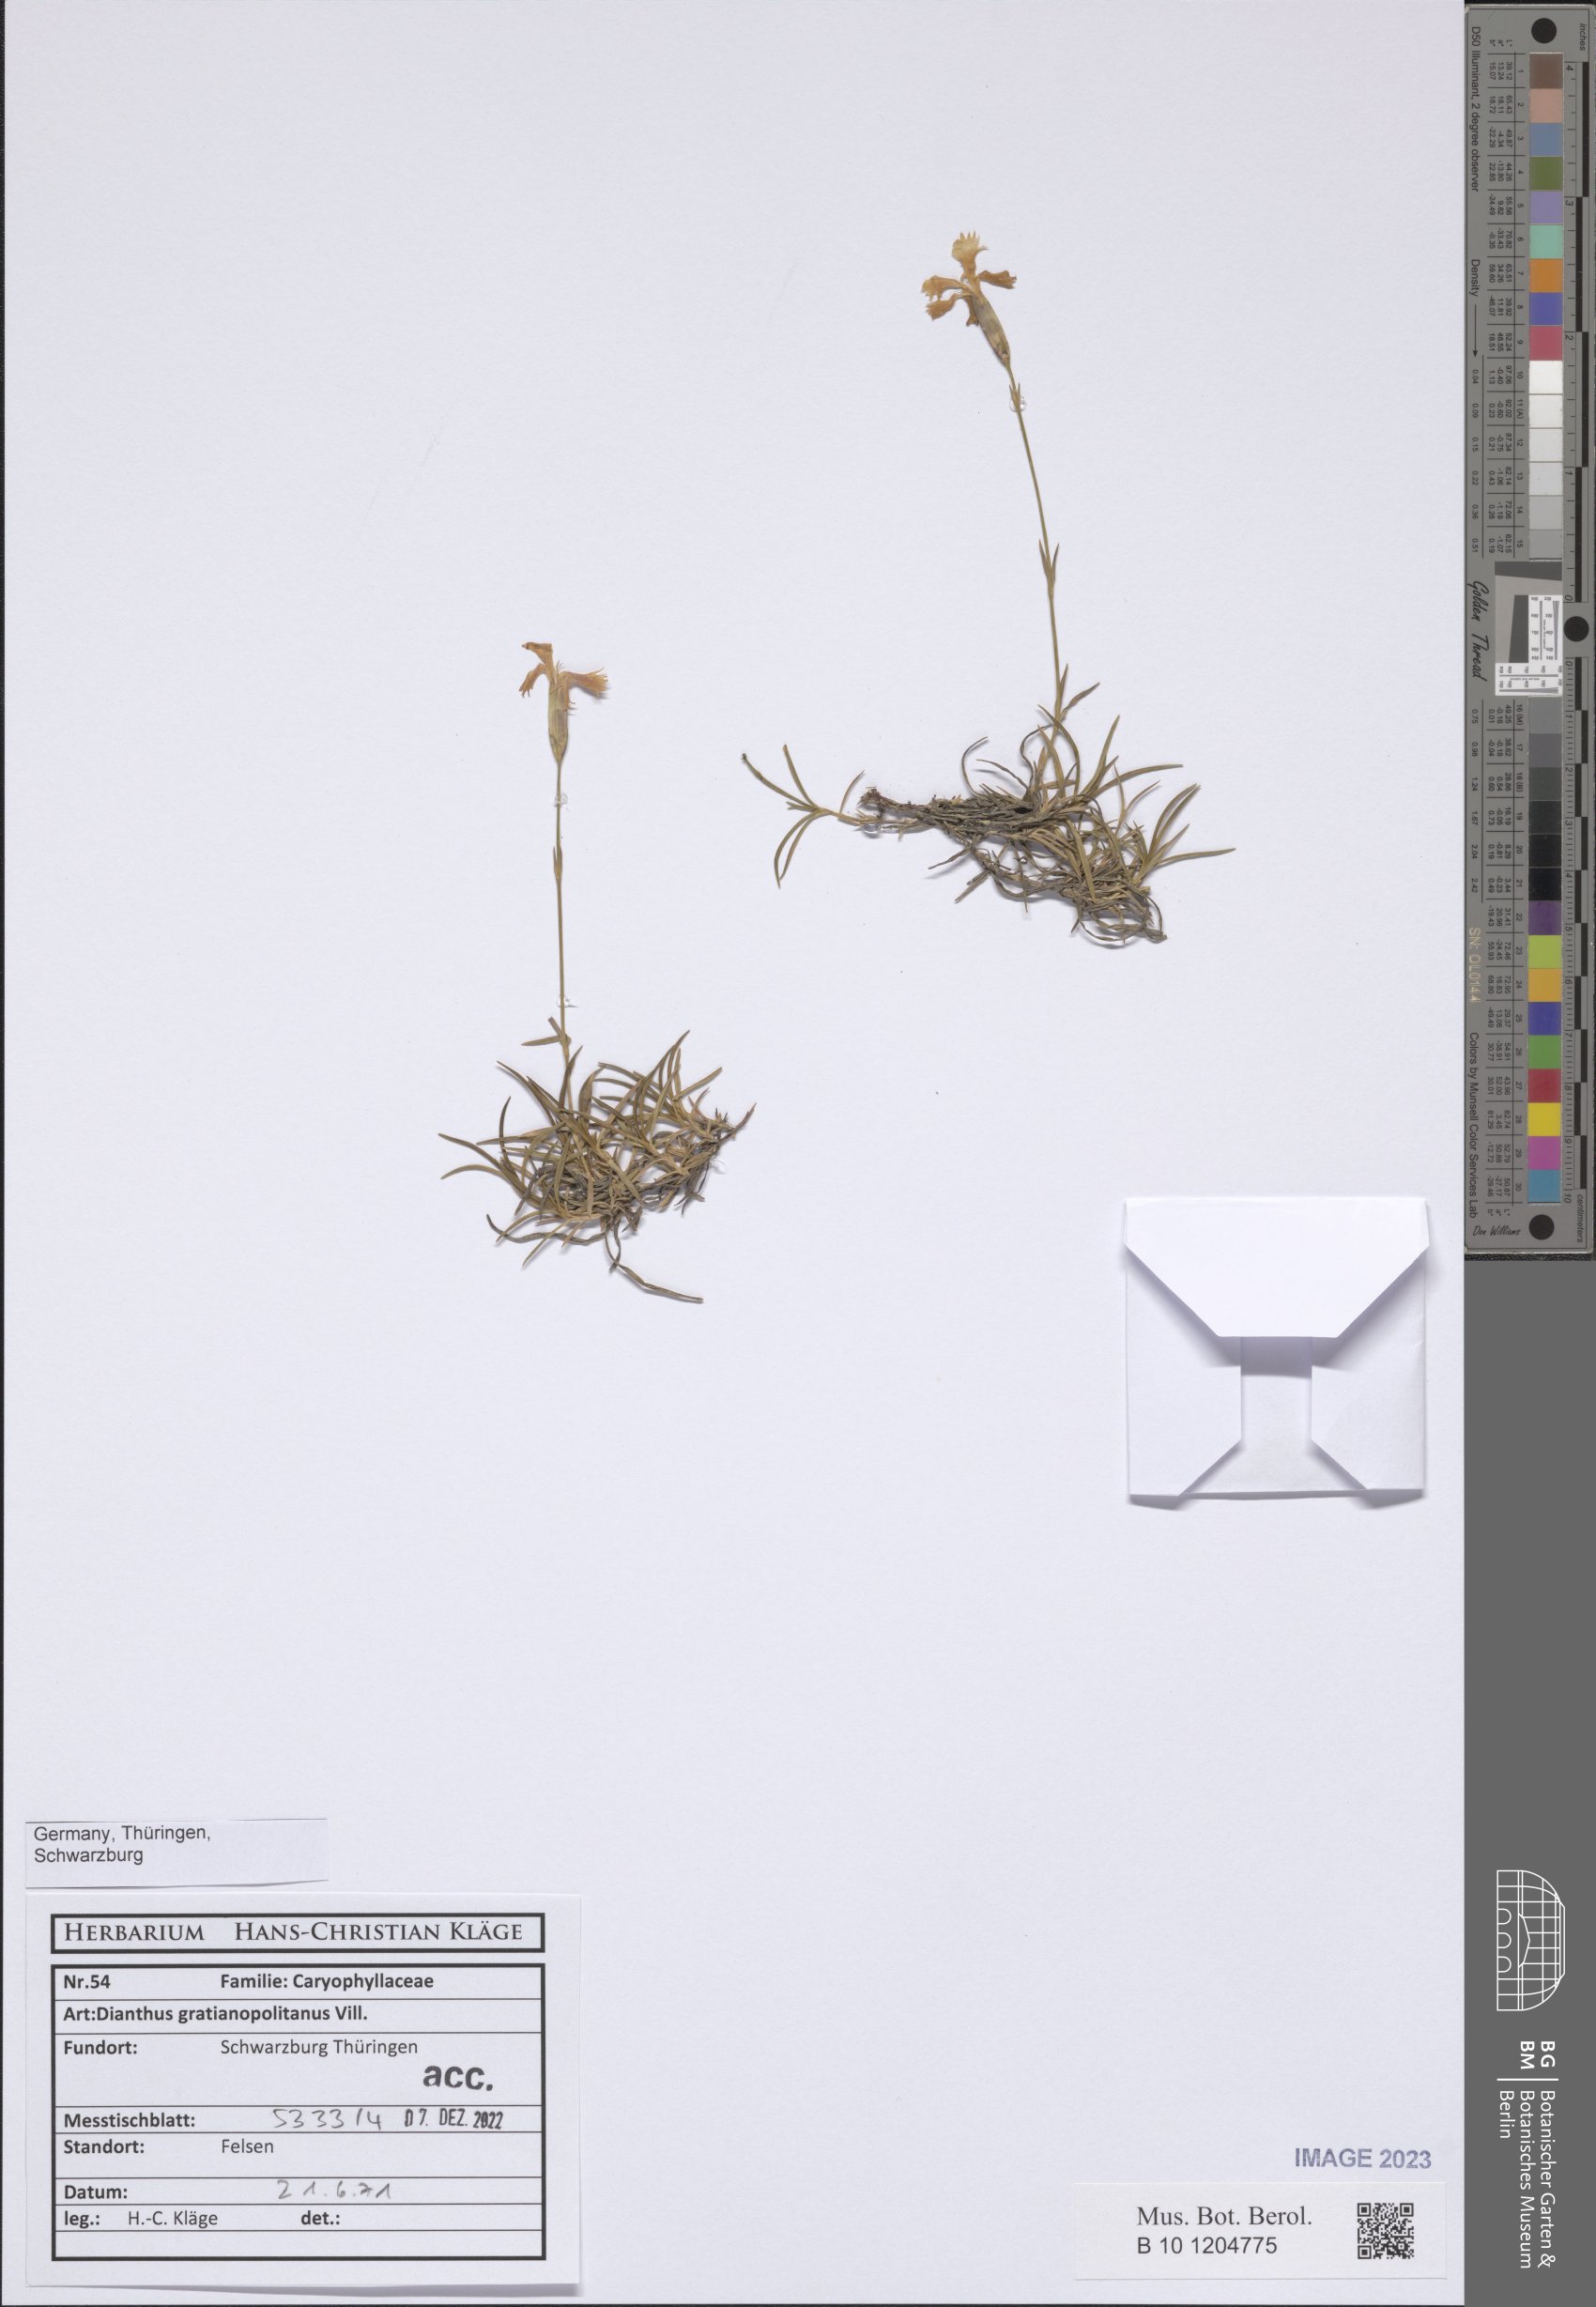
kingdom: Plantae
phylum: Tracheophyta
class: Magnoliopsida
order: Caryophyllales
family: Caryophyllaceae
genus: Dianthus
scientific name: Dianthus gratianopolitanus
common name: Cheddar pink
